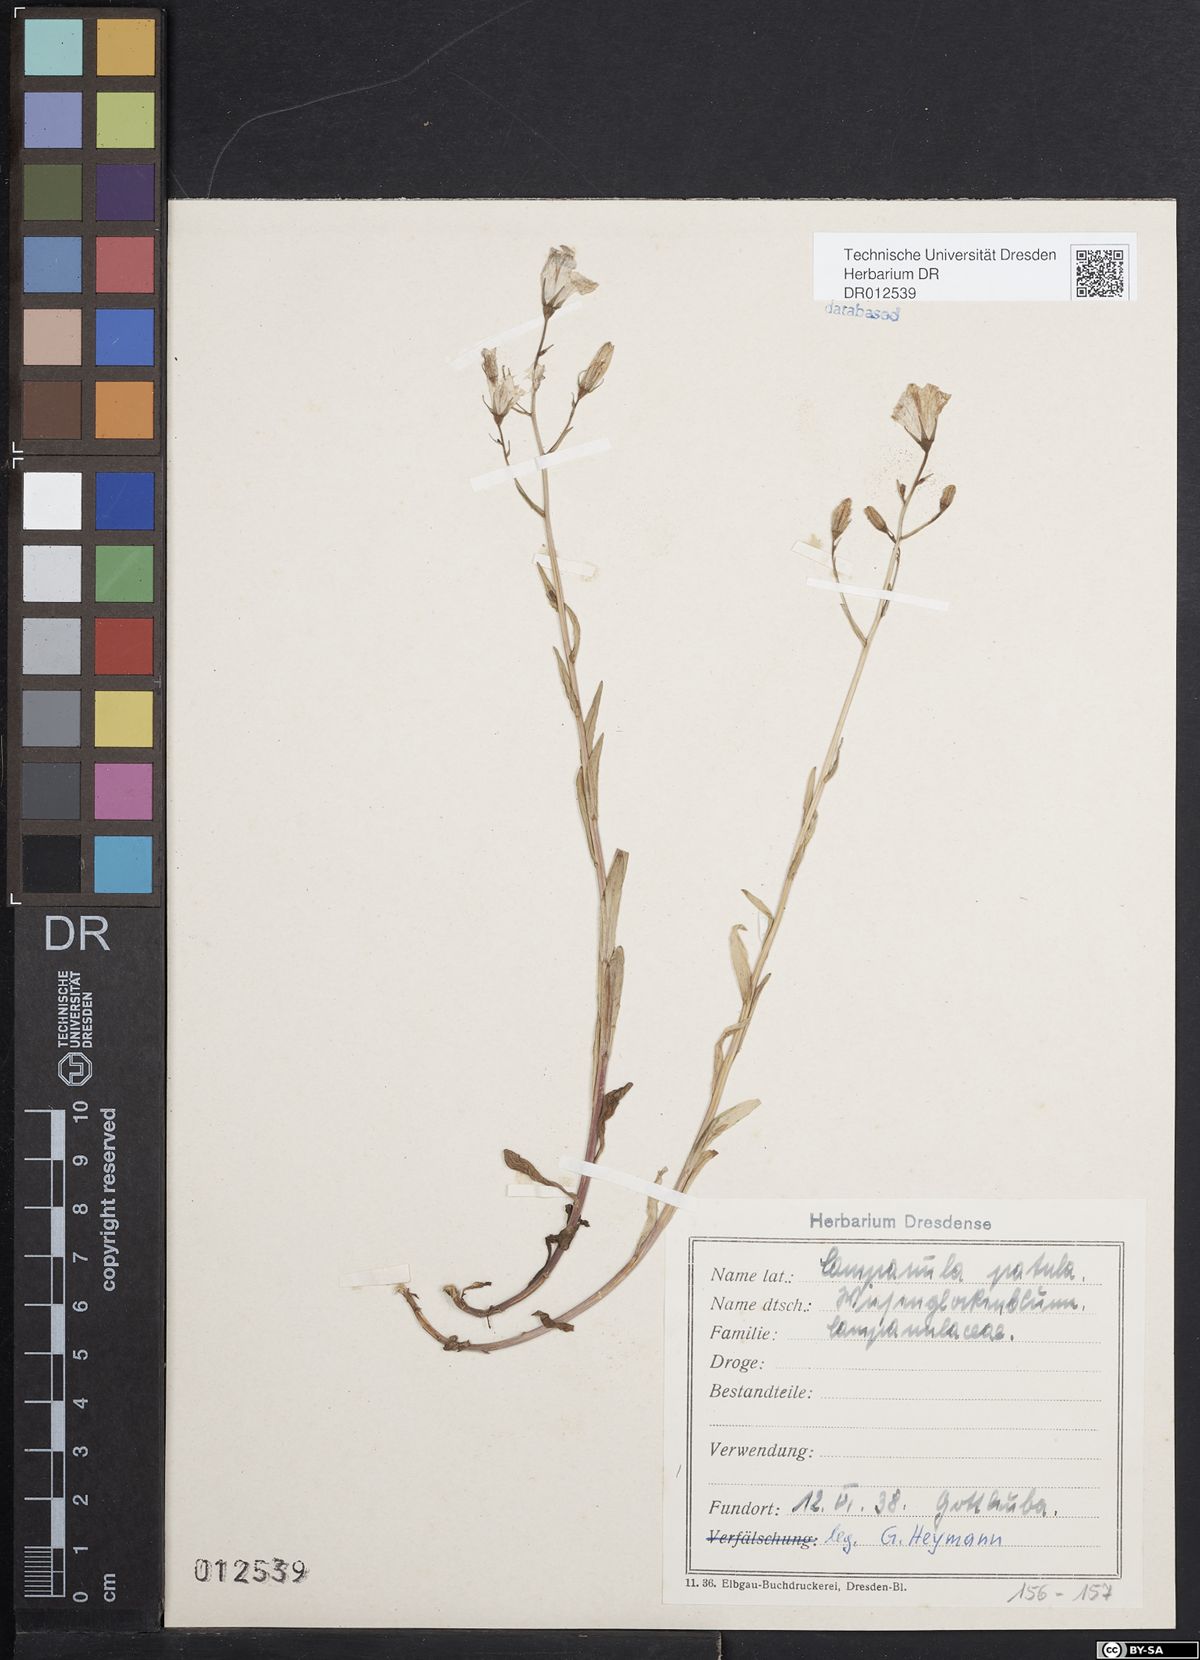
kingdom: Plantae
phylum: Tracheophyta
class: Magnoliopsida
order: Asterales
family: Campanulaceae
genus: Campanula
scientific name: Campanula patula
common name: Spreading bellflower
